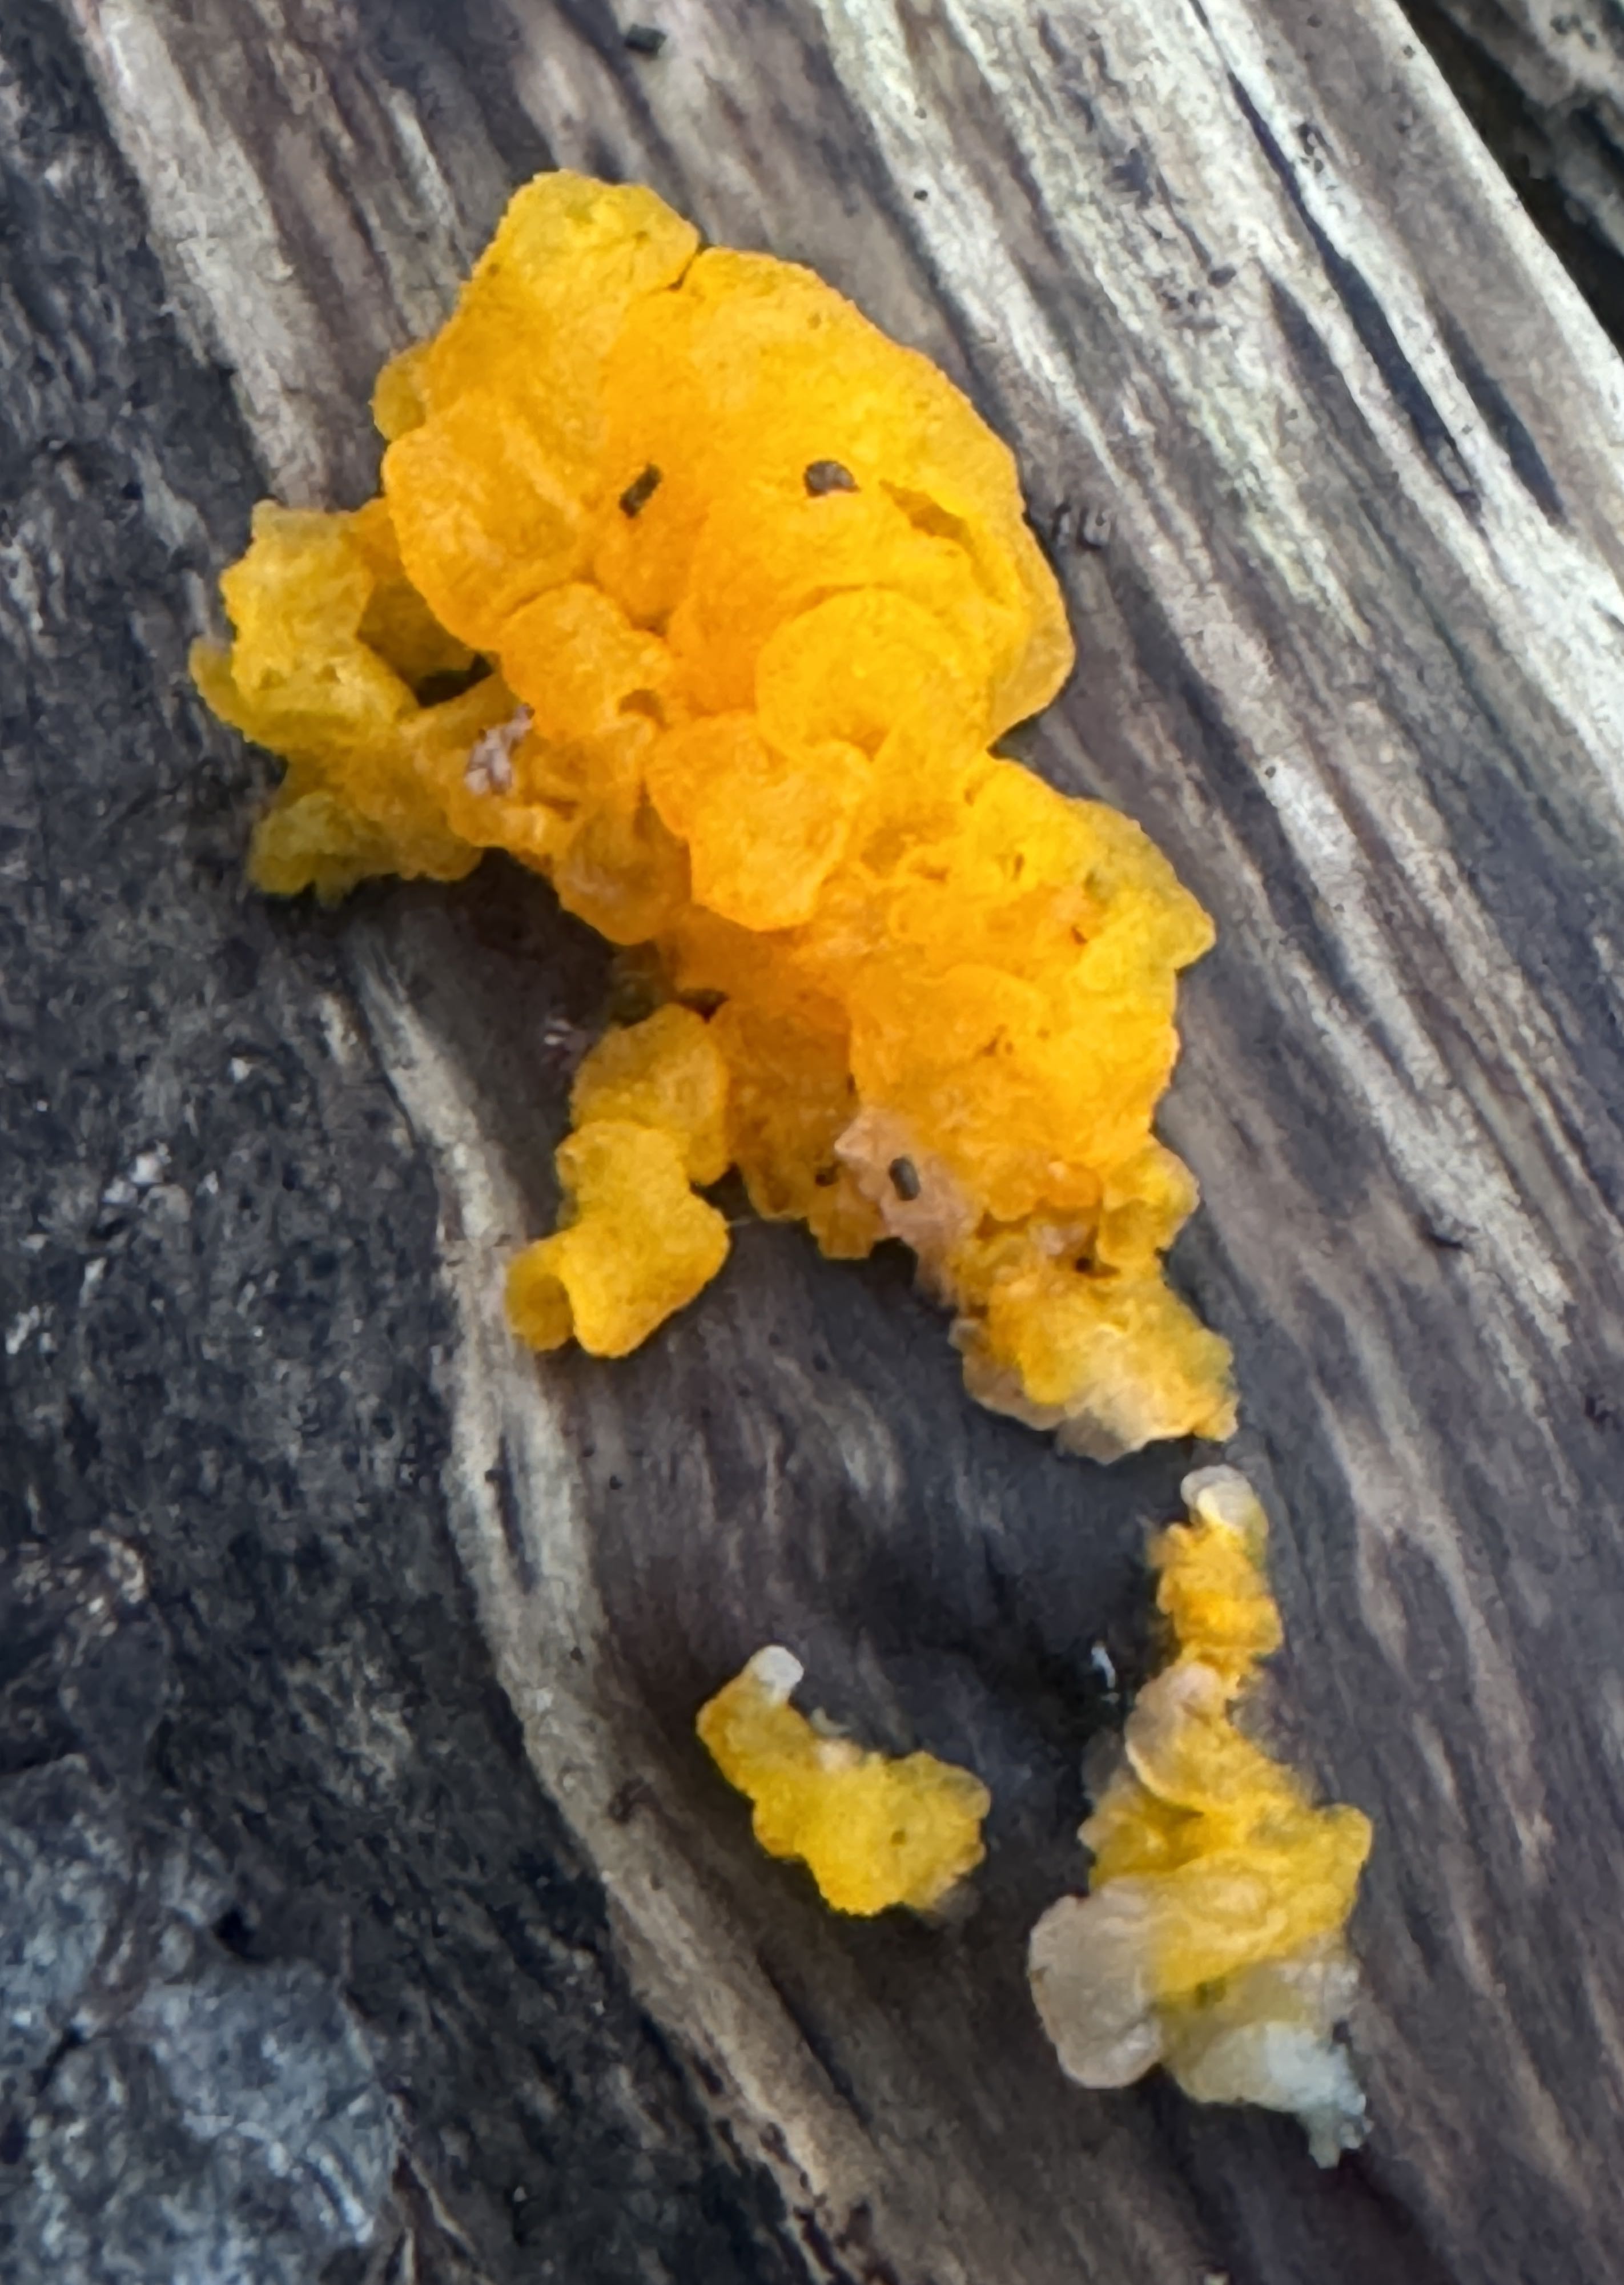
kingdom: Fungi
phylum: Basidiomycota
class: Tremellomycetes
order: Tremellales
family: Tremellaceae
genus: Tremella
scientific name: Tremella mesenterica
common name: gul bævresvamp
